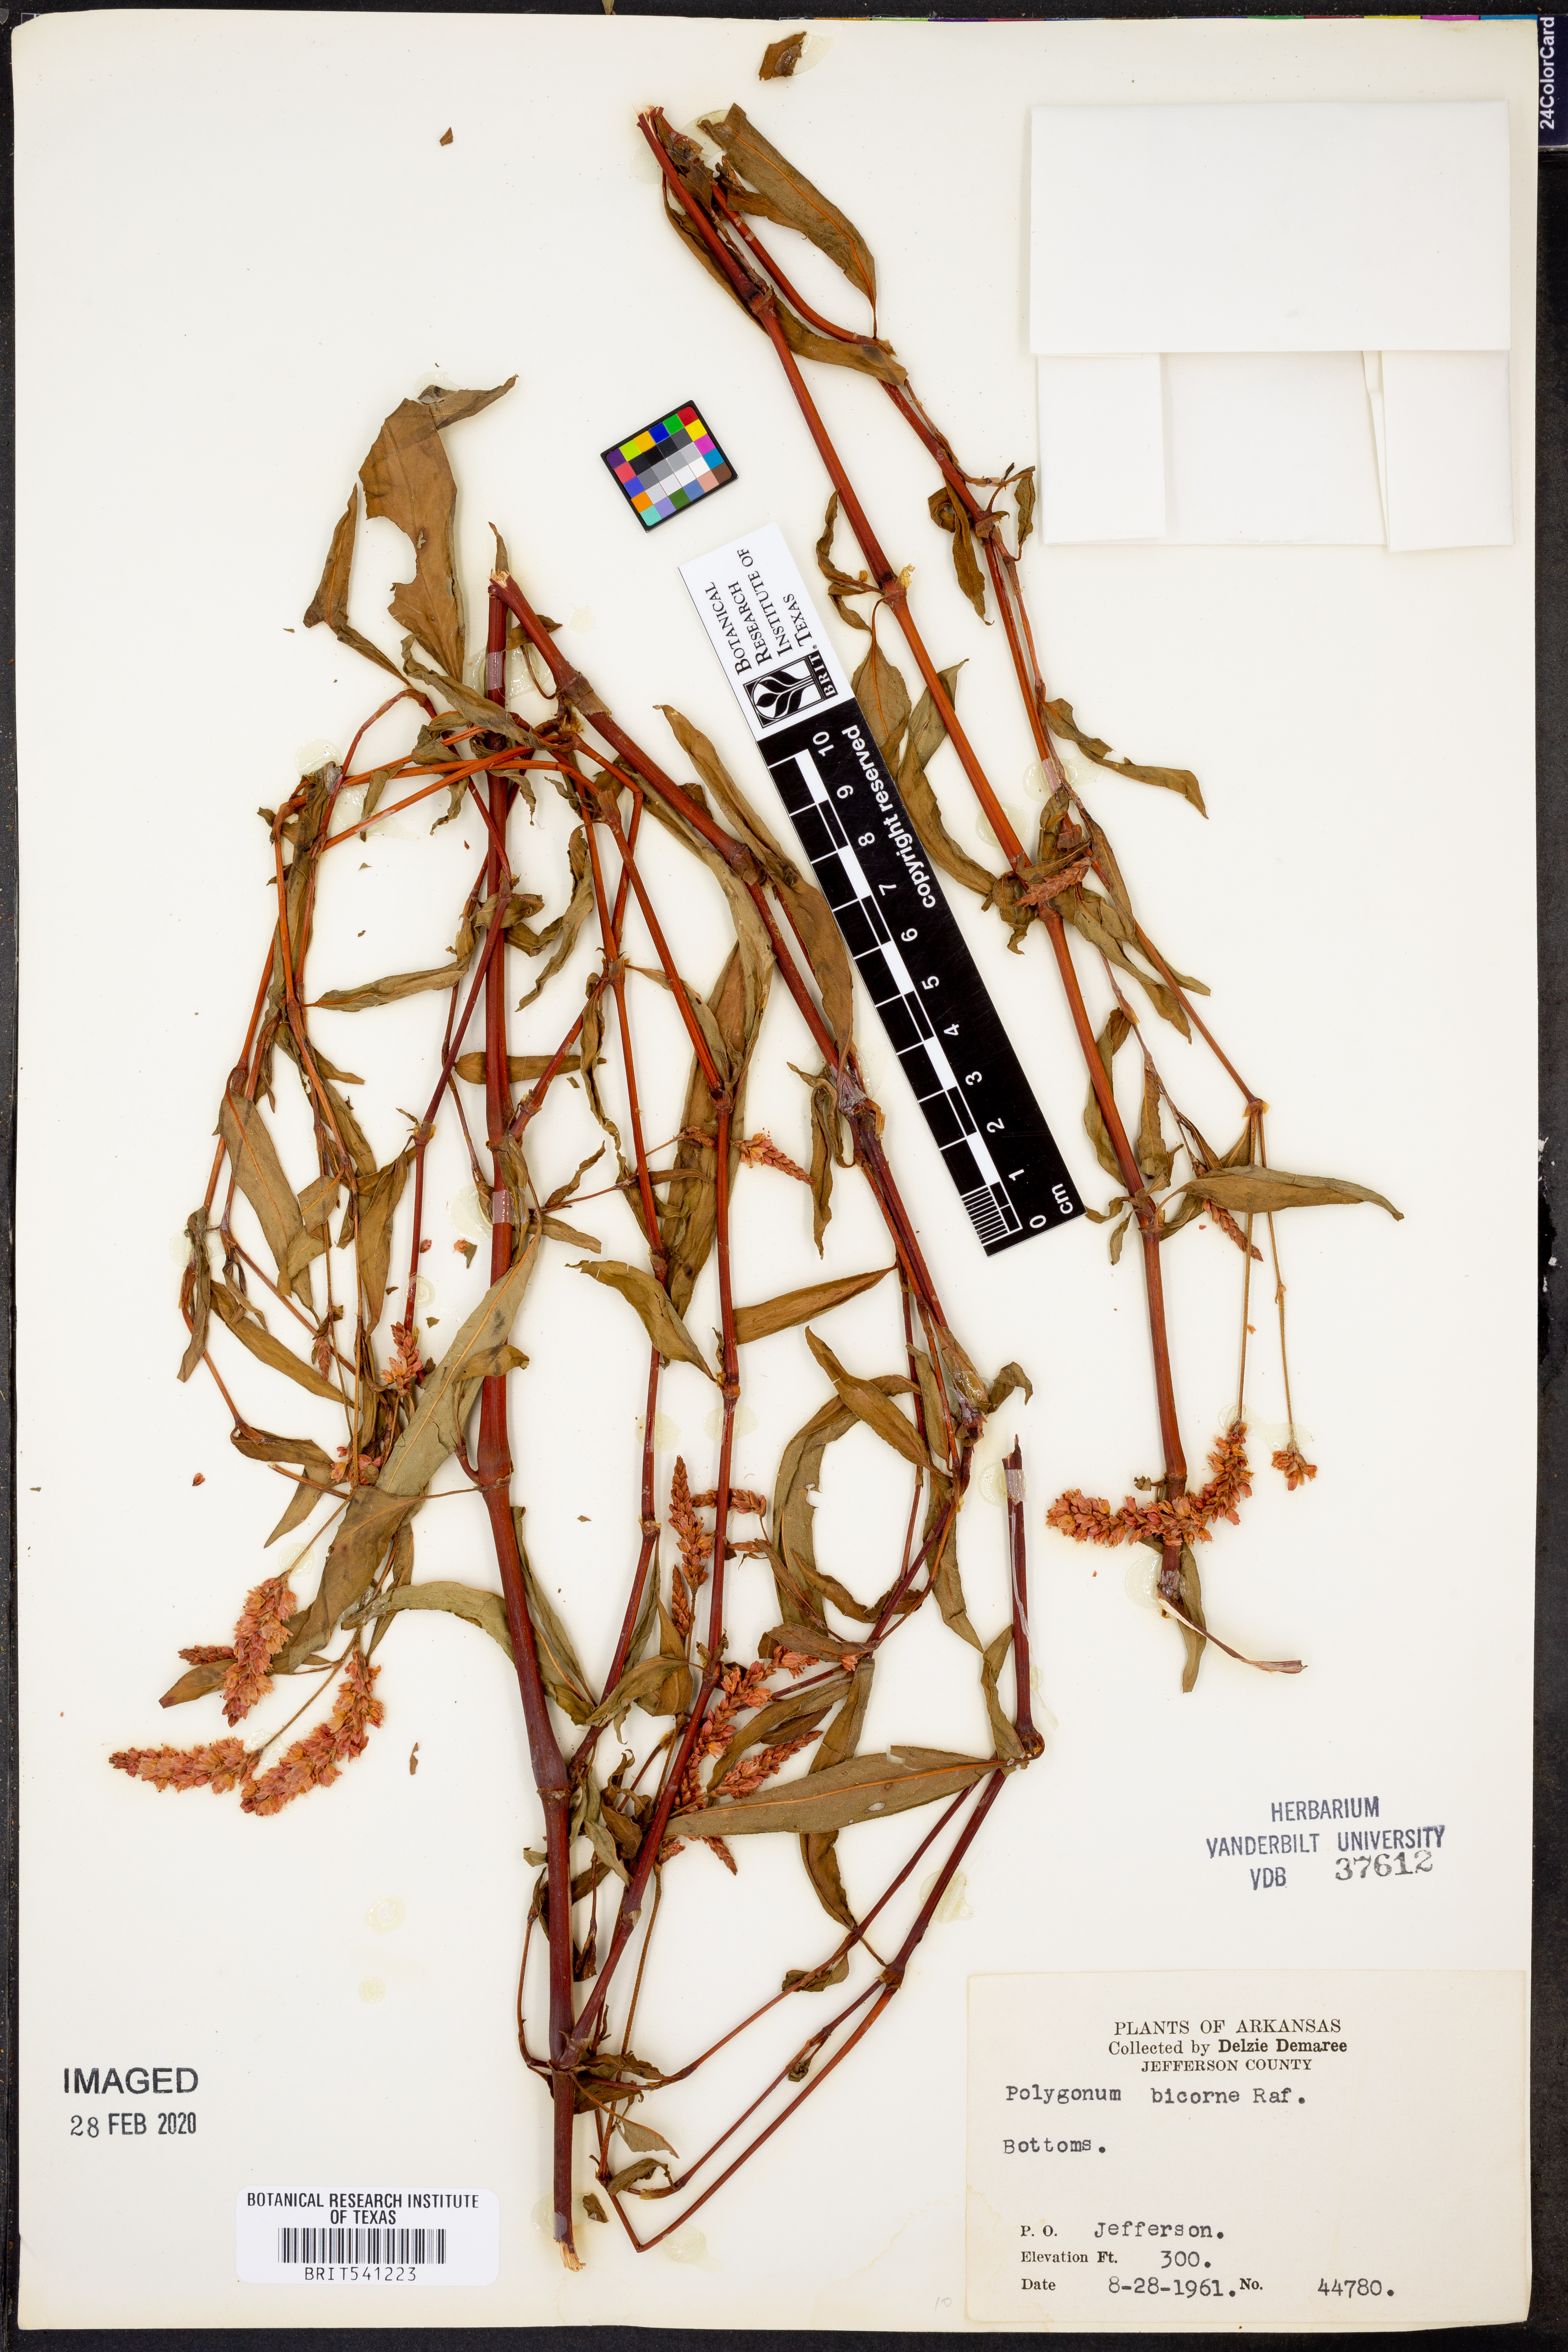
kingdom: Plantae
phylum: Tracheophyta
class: Magnoliopsida
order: Caryophyllales
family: Polygonaceae
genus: Persicaria
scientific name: Persicaria bicornis
